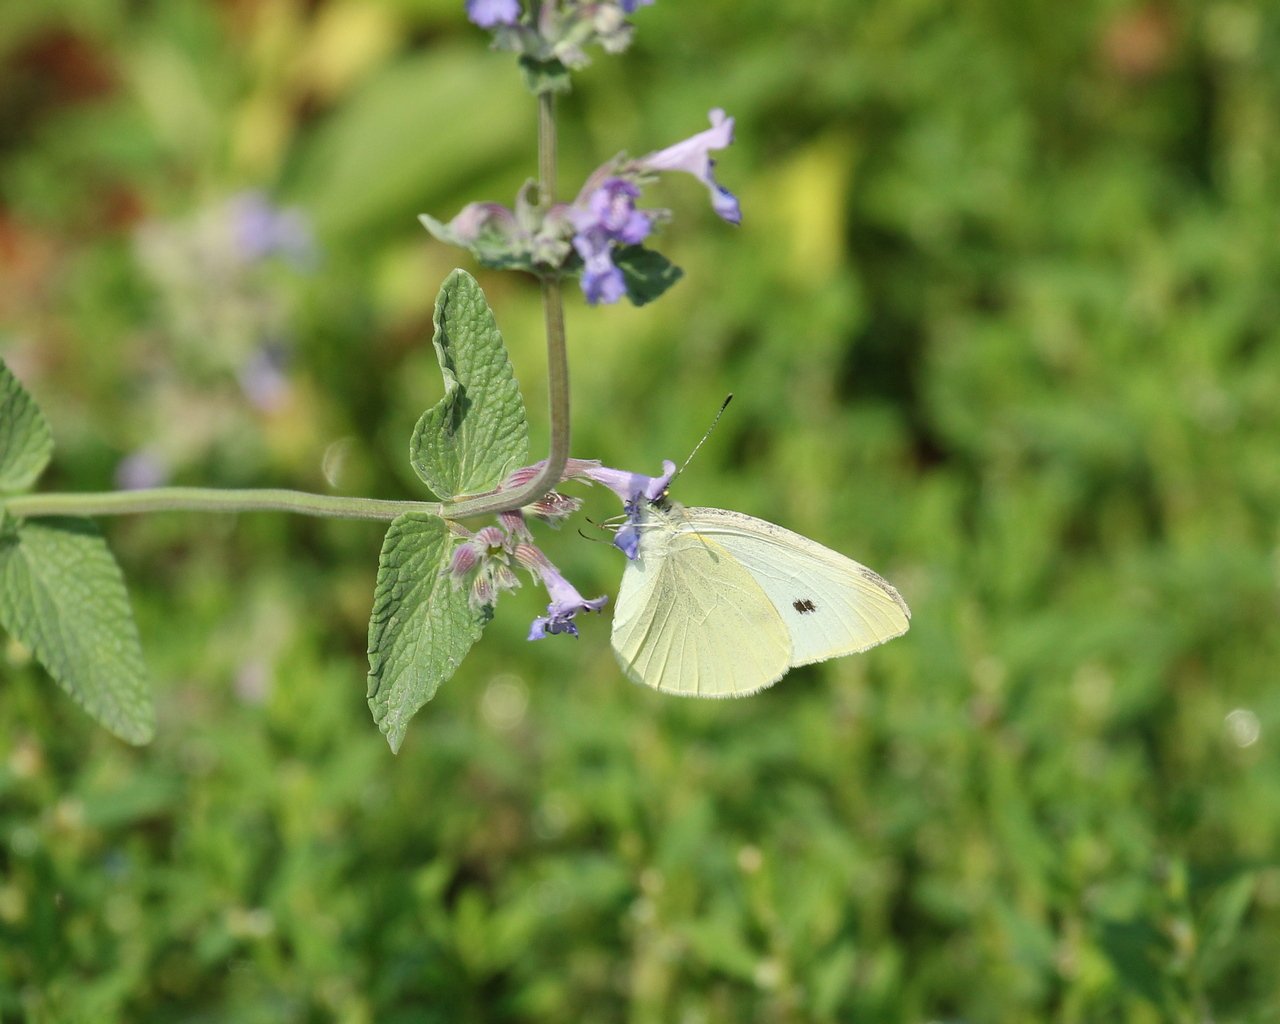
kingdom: Animalia
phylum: Arthropoda
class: Insecta
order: Lepidoptera
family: Pieridae
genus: Pieris
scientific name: Pieris rapae
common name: Cabbage White
